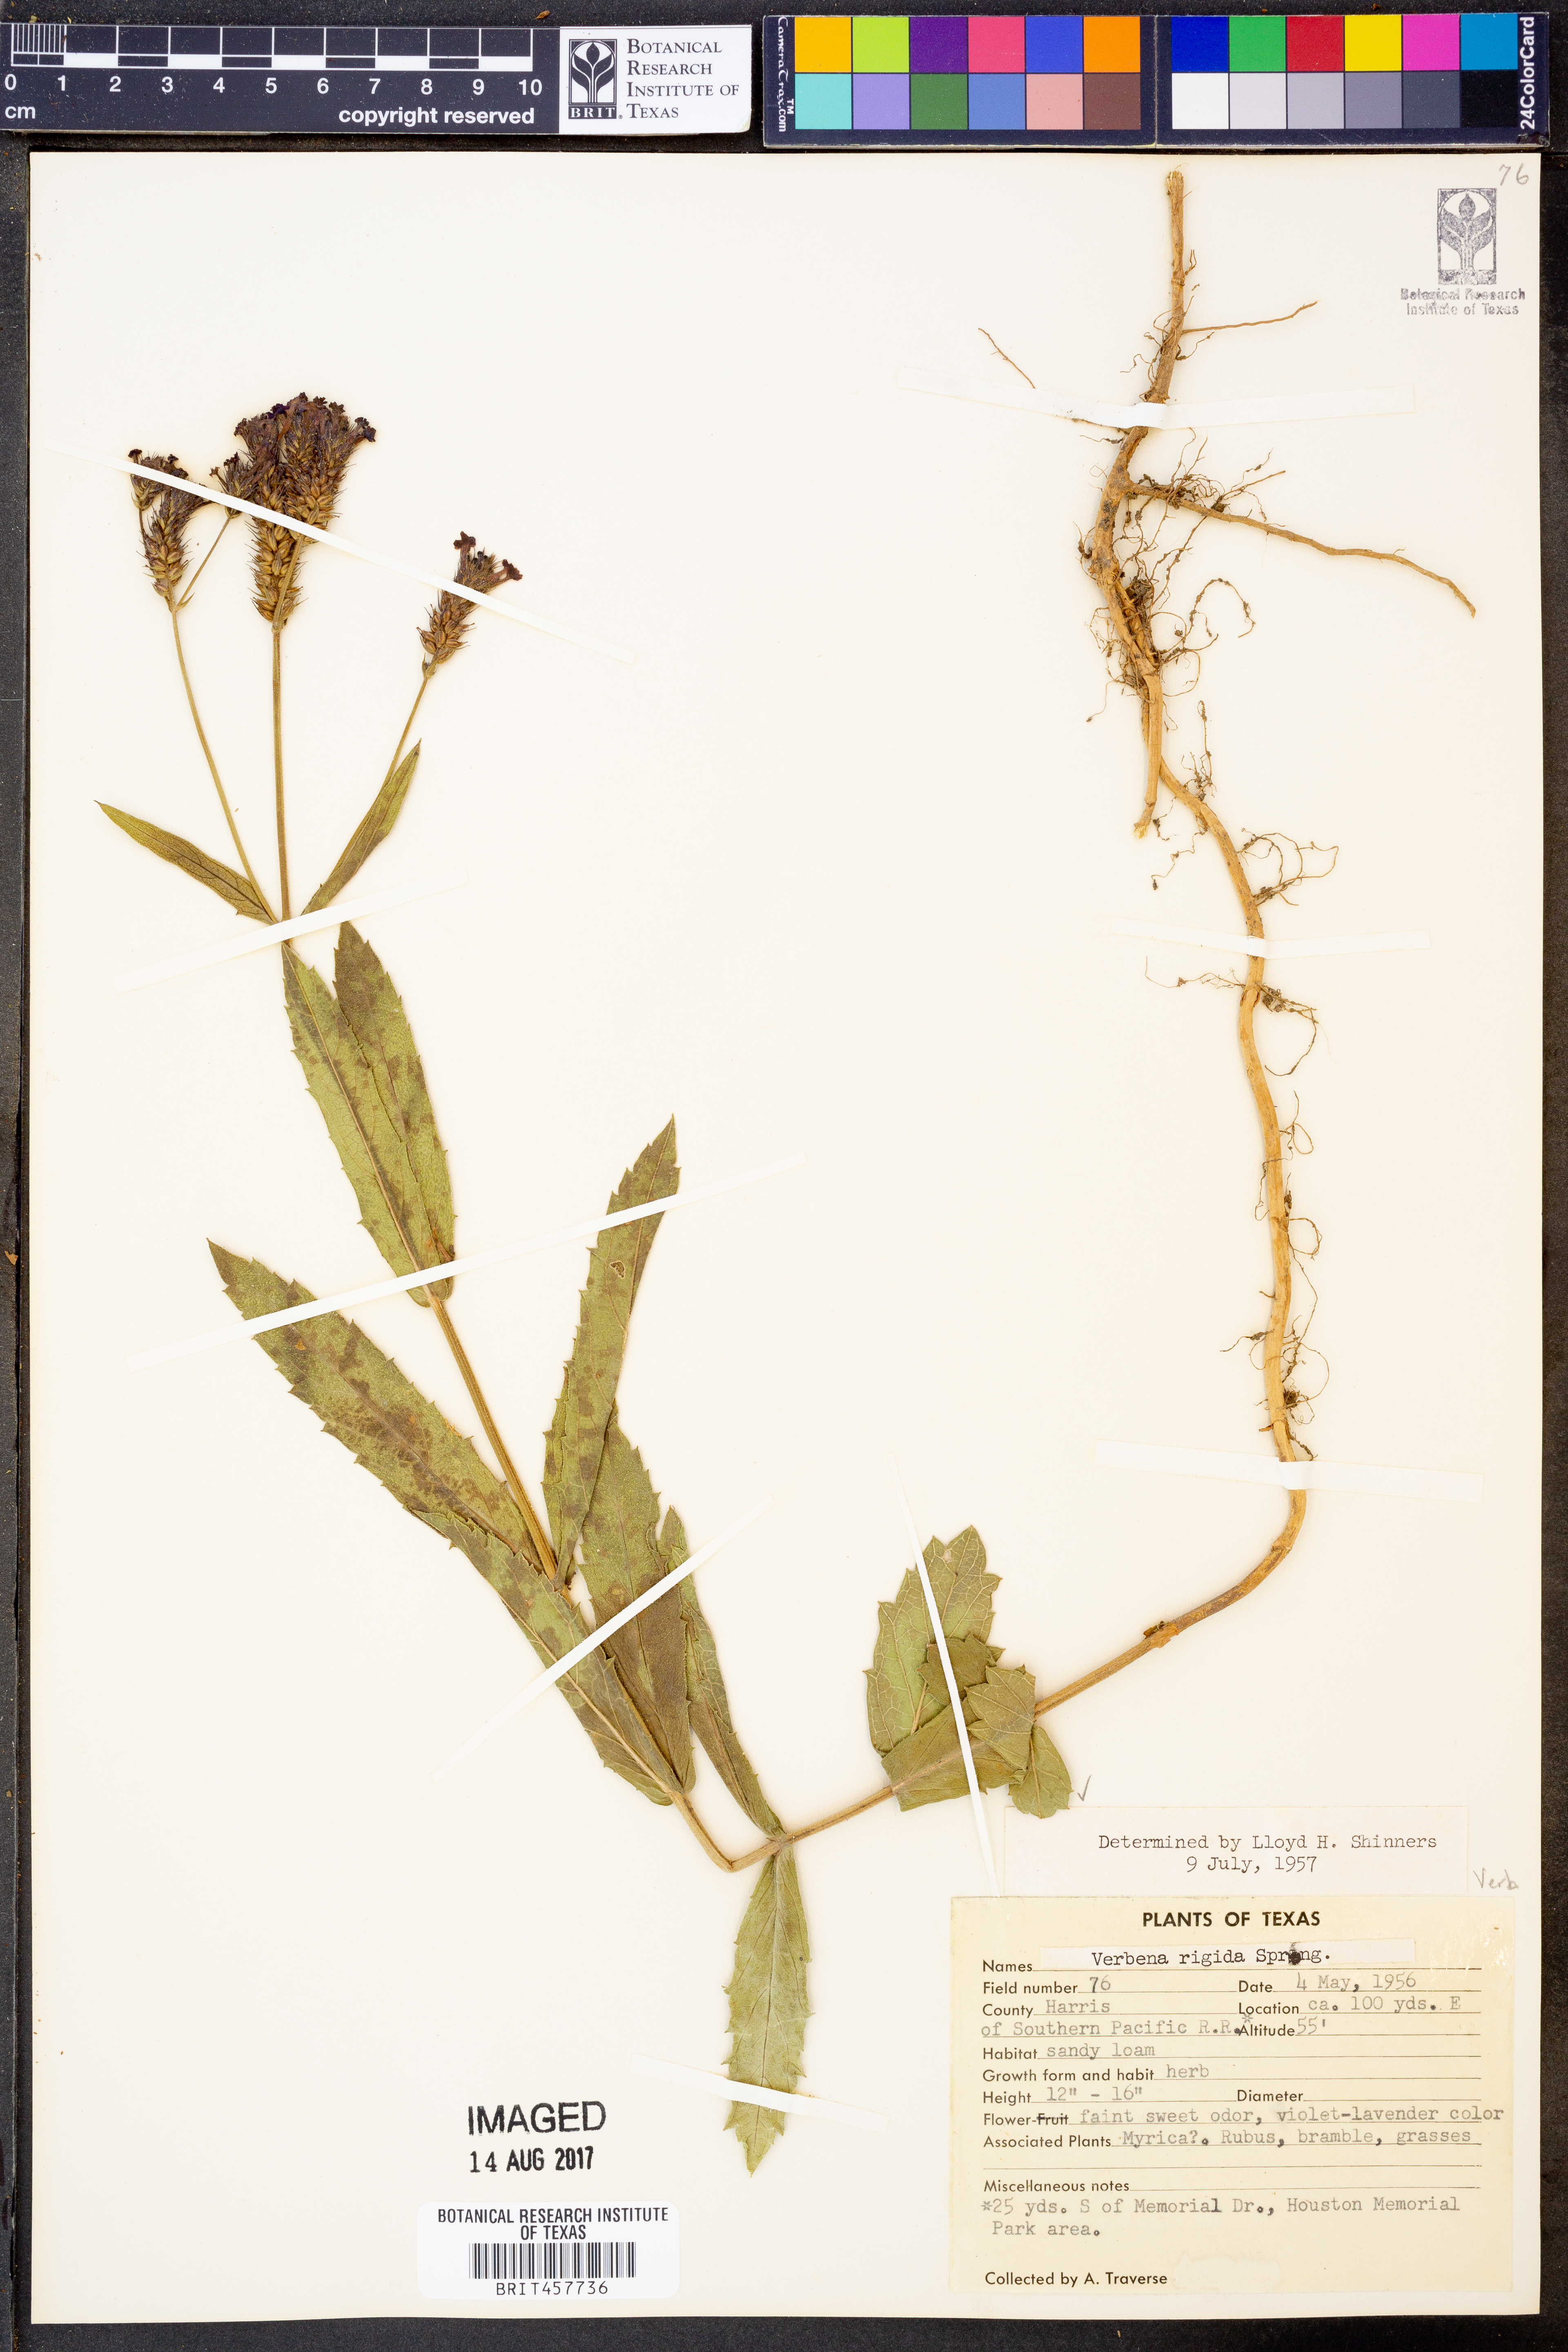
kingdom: Plantae
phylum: Tracheophyta
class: Magnoliopsida
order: Lamiales
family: Verbenaceae
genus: Verbena
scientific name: Verbena rigida
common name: Slender vervain
